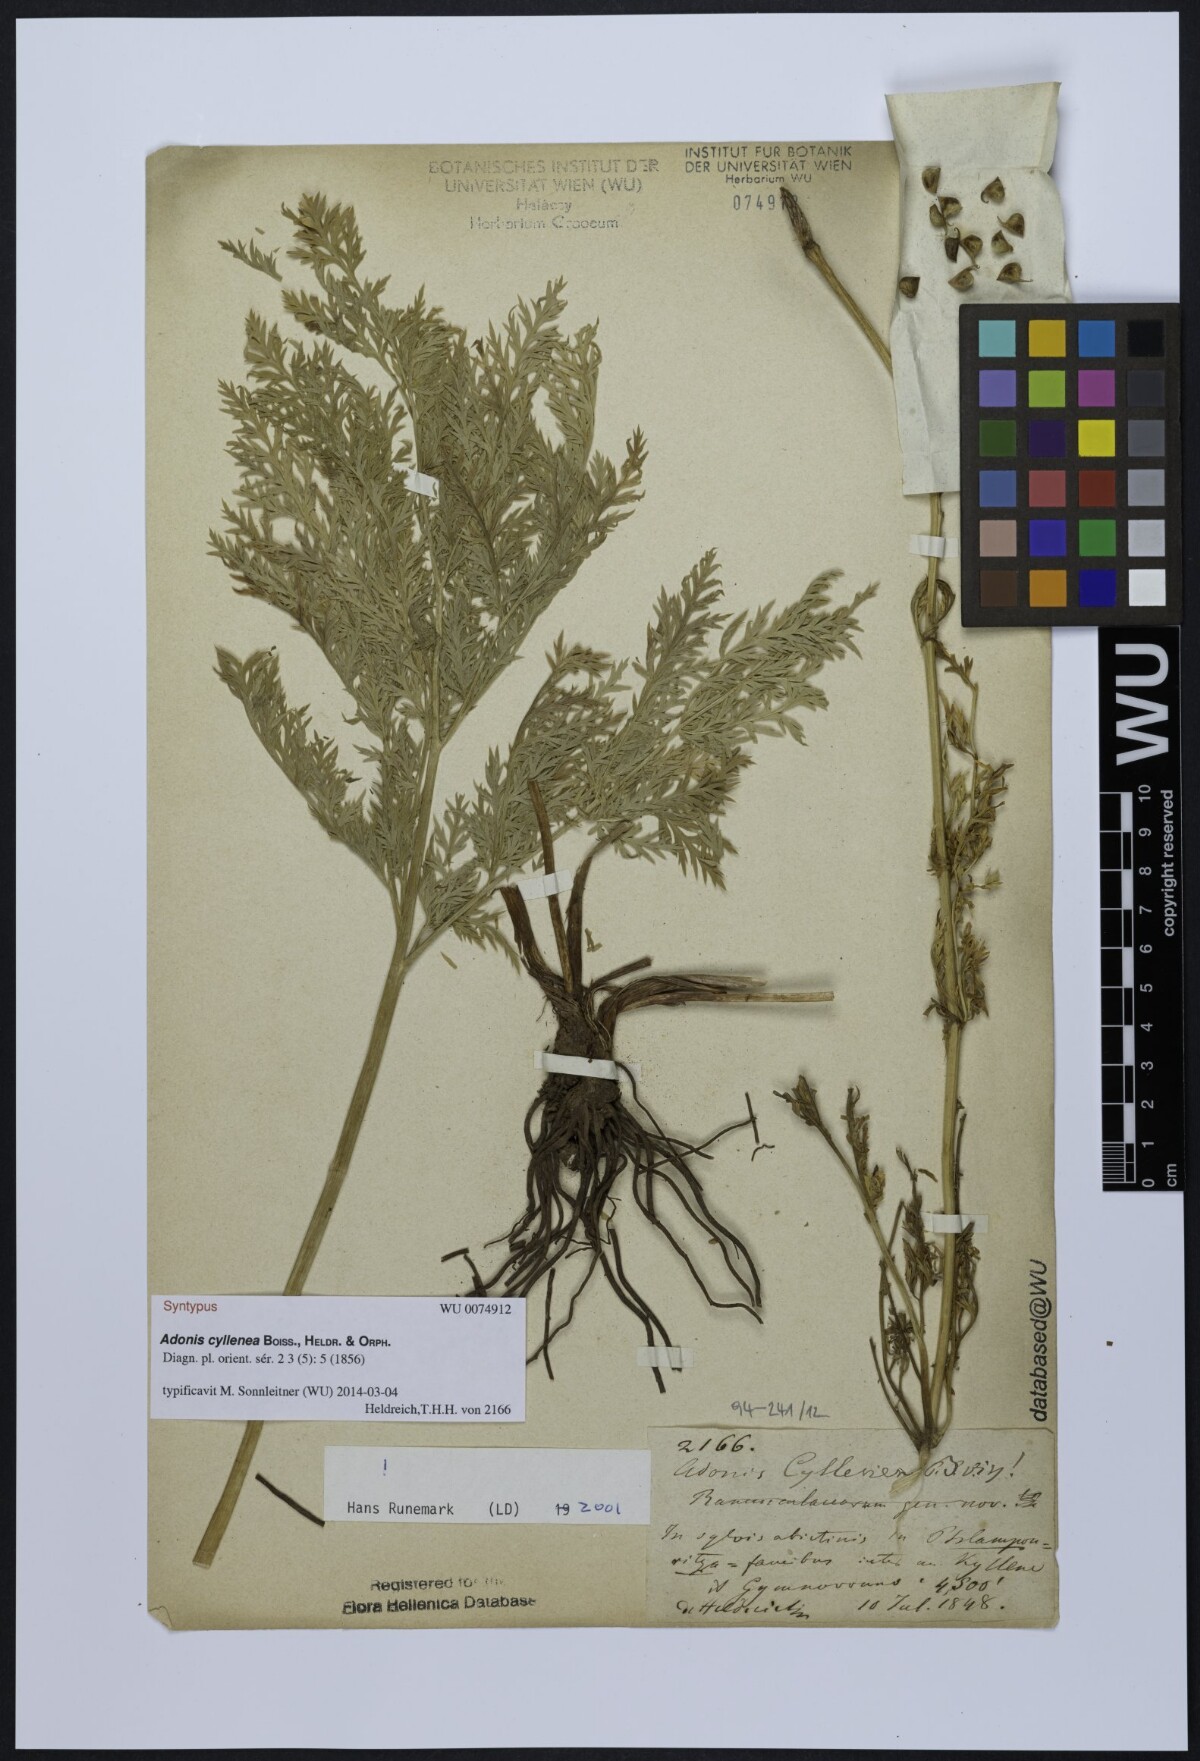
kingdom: Plantae
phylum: Tracheophyta
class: Magnoliopsida
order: Ranunculales
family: Ranunculaceae
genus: Adonis
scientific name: Adonis cyllenea
